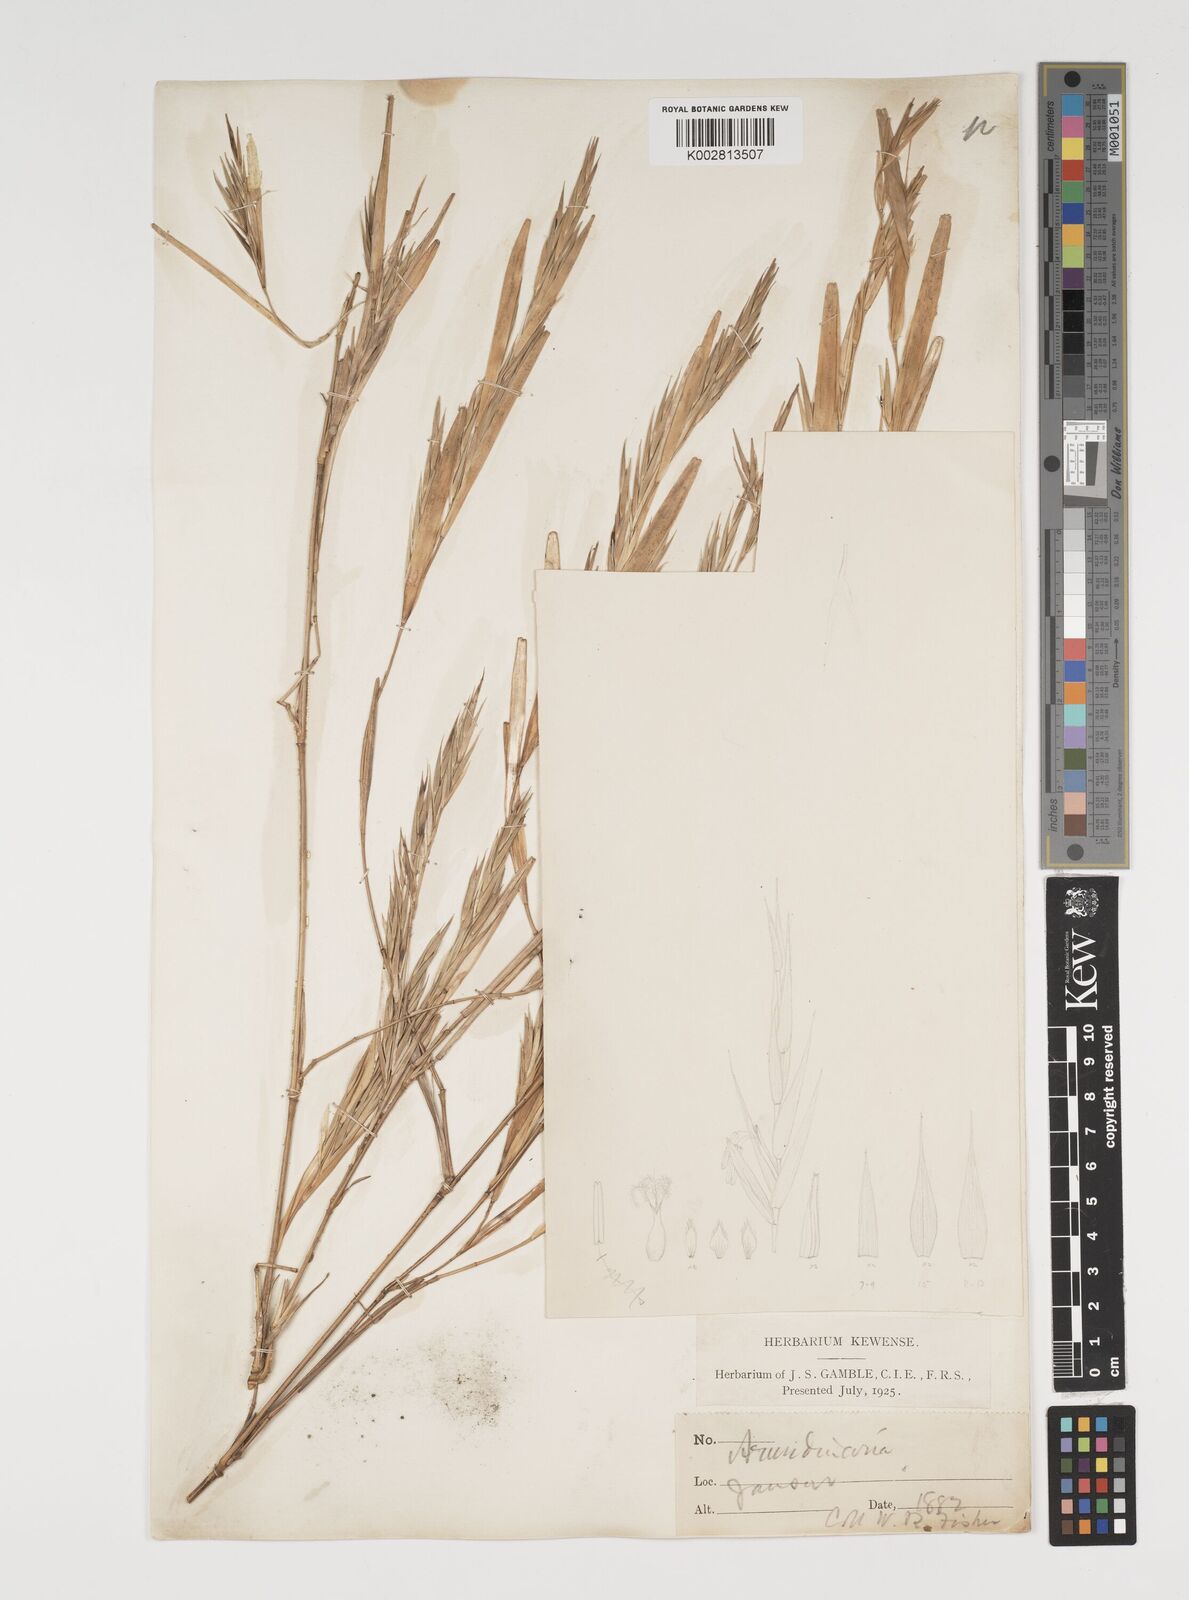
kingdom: Plantae
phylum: Tracheophyta
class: Liliopsida
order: Poales
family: Poaceae
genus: Thamnocalamus
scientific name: Thamnocalamus spathiflorus
